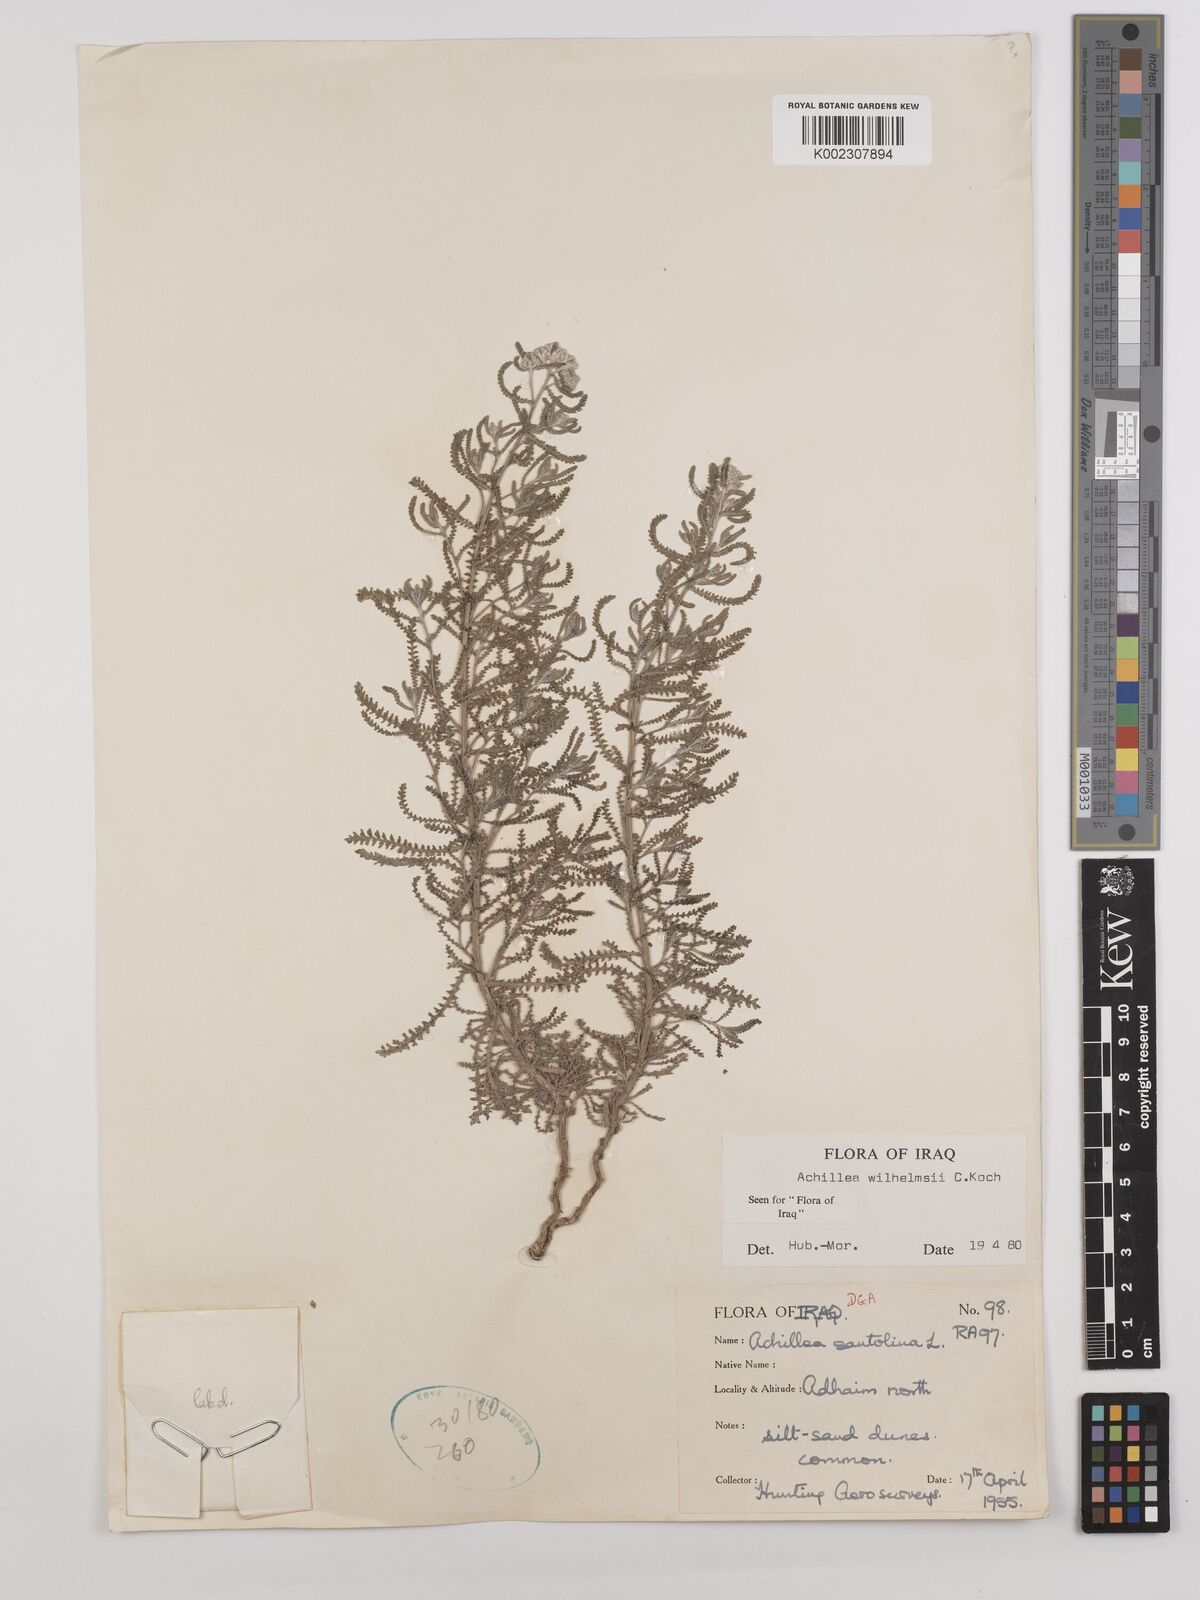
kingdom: Plantae
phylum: Tracheophyta
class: Magnoliopsida
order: Asterales
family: Asteraceae
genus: Achillea
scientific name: Achillea wilhelmsii
